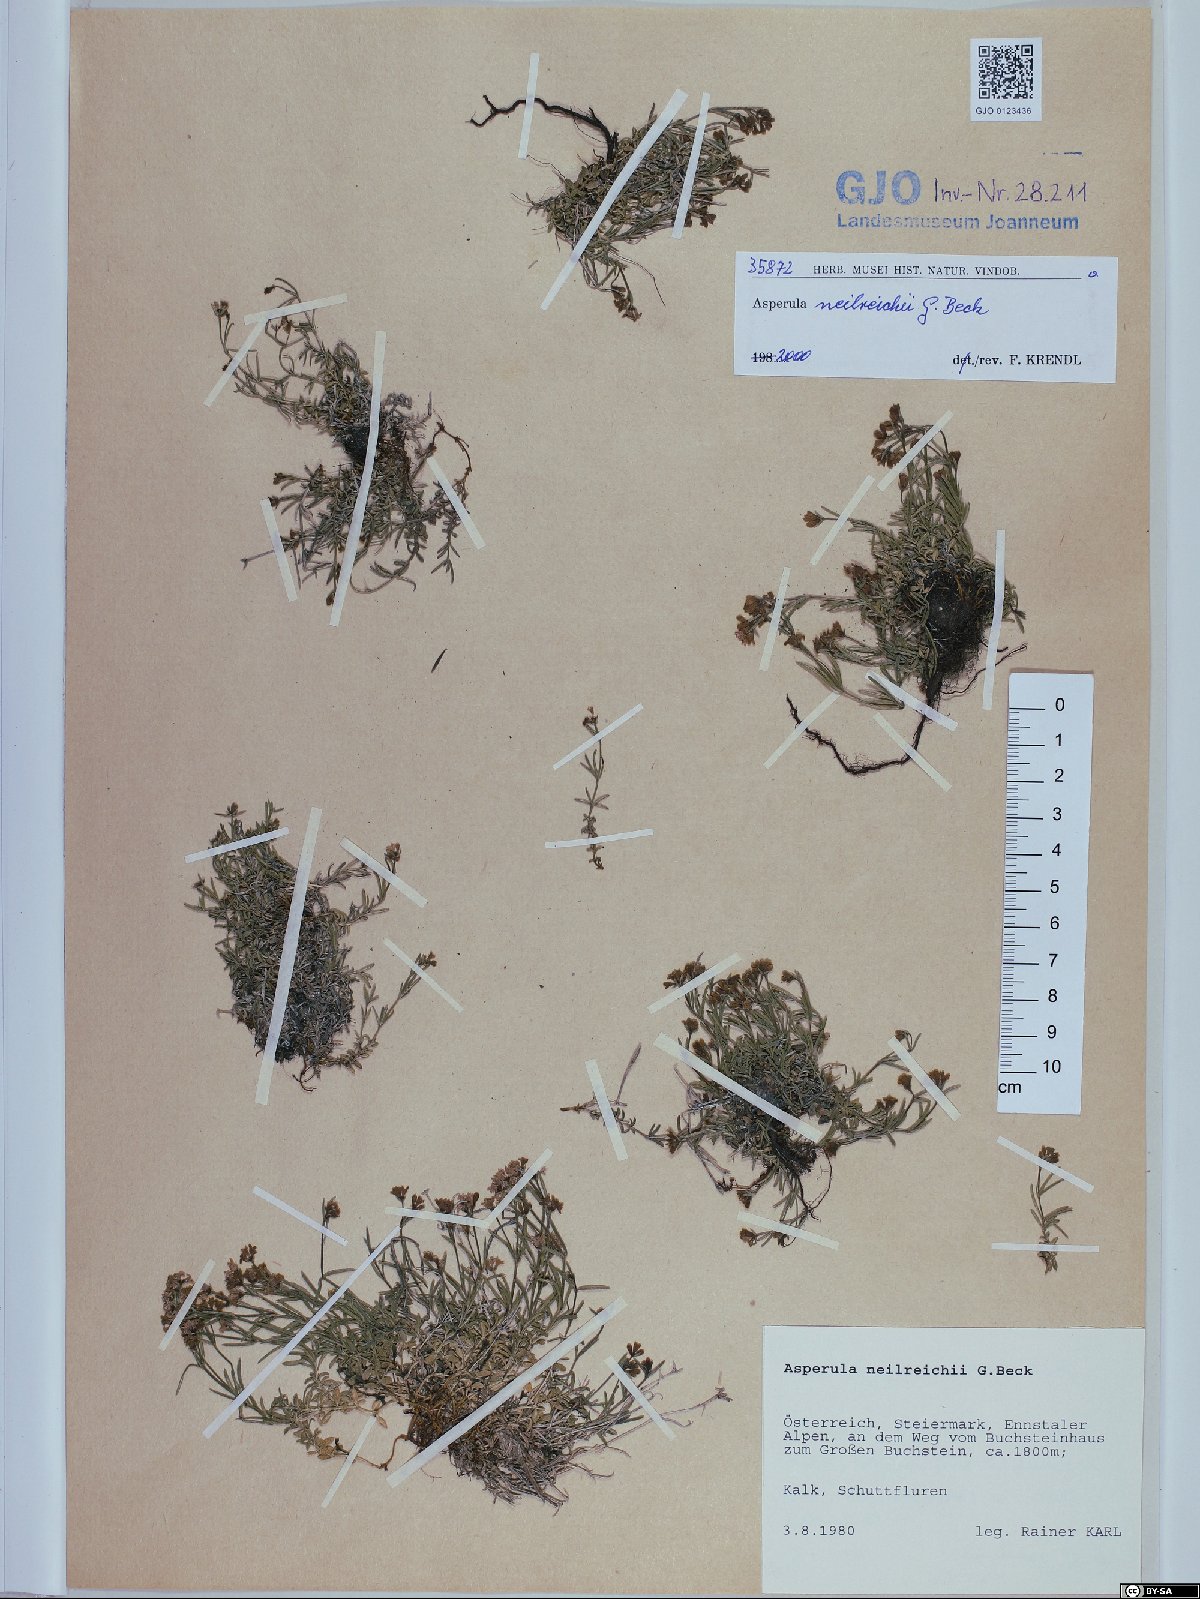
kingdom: Plantae
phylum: Tracheophyta
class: Magnoliopsida
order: Gentianales
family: Rubiaceae
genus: Cynanchica
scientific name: Cynanchica neilreichii
